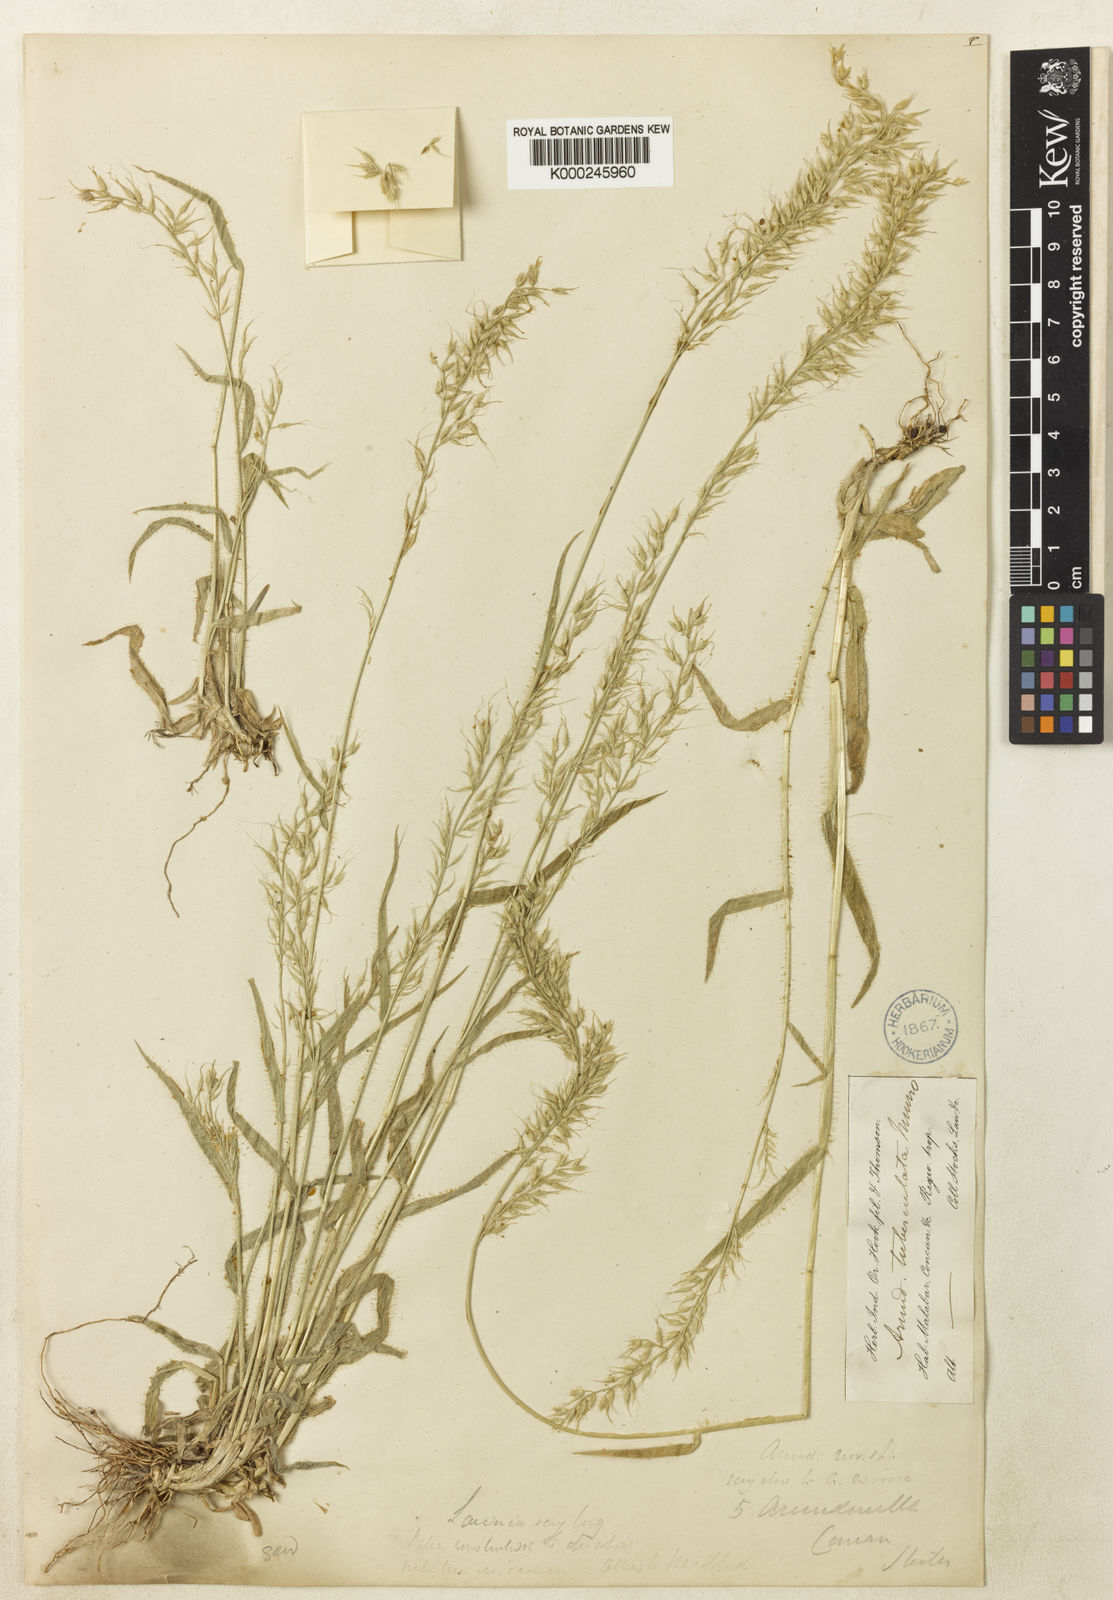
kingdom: Plantae
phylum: Tracheophyta
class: Liliopsida
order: Poales
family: Poaceae
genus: Arundinella
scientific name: Arundinella tuberculata
